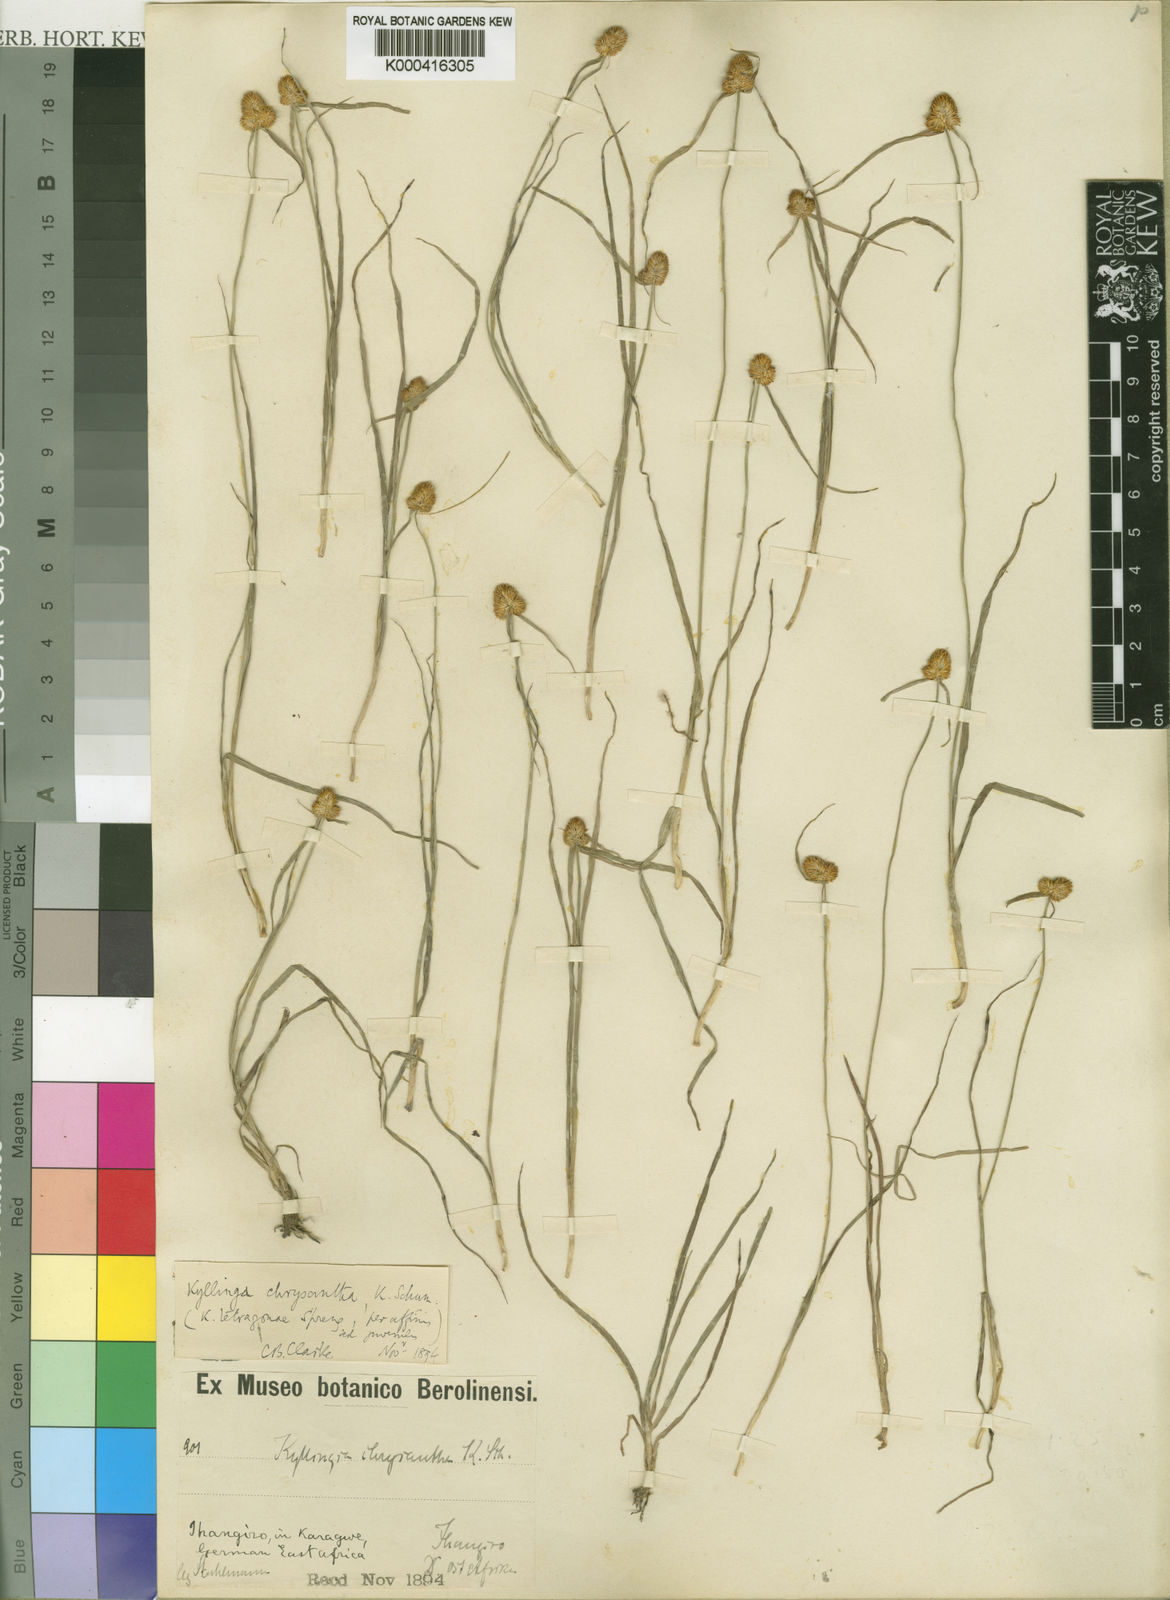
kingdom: Plantae
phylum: Tracheophyta
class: Liliopsida
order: Poales
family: Cyperaceae
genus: Cyperus
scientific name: Cyperus aureostramineus
